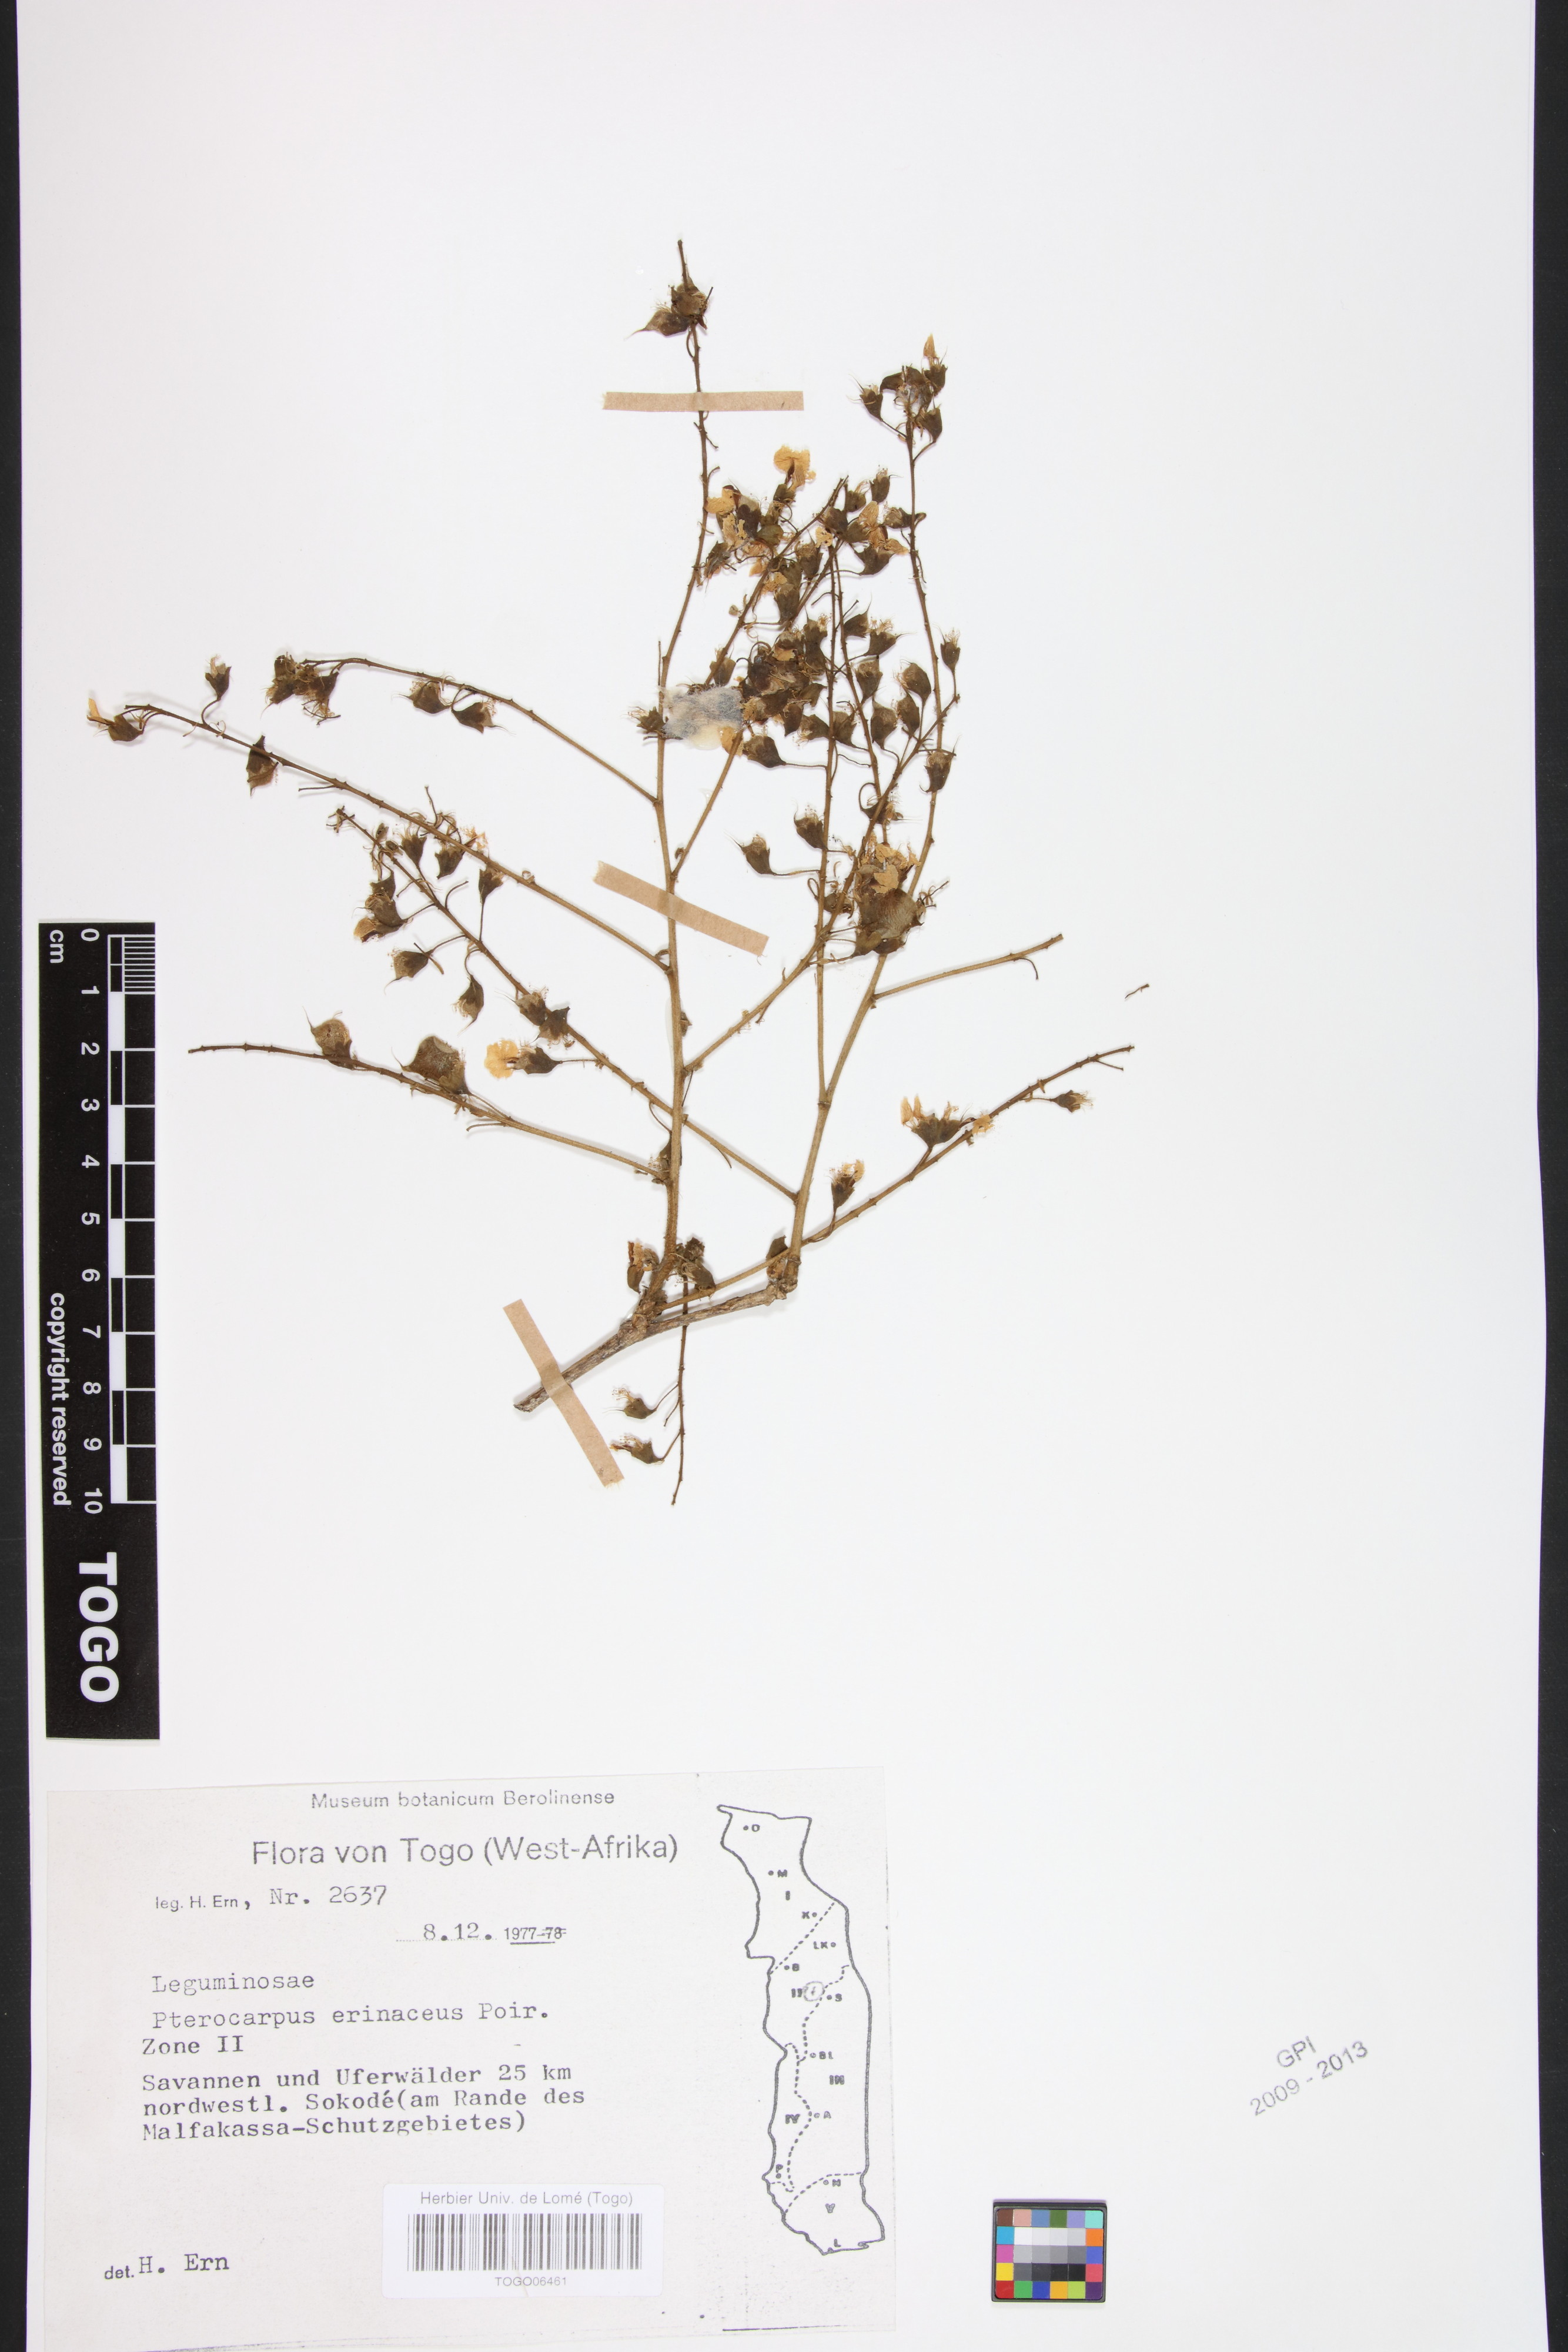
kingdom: Plantae
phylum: Tracheophyta
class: Magnoliopsida
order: Fabales
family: Fabaceae
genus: Pterocarpus
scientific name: Pterocarpus erinaceus
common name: African rosewood
